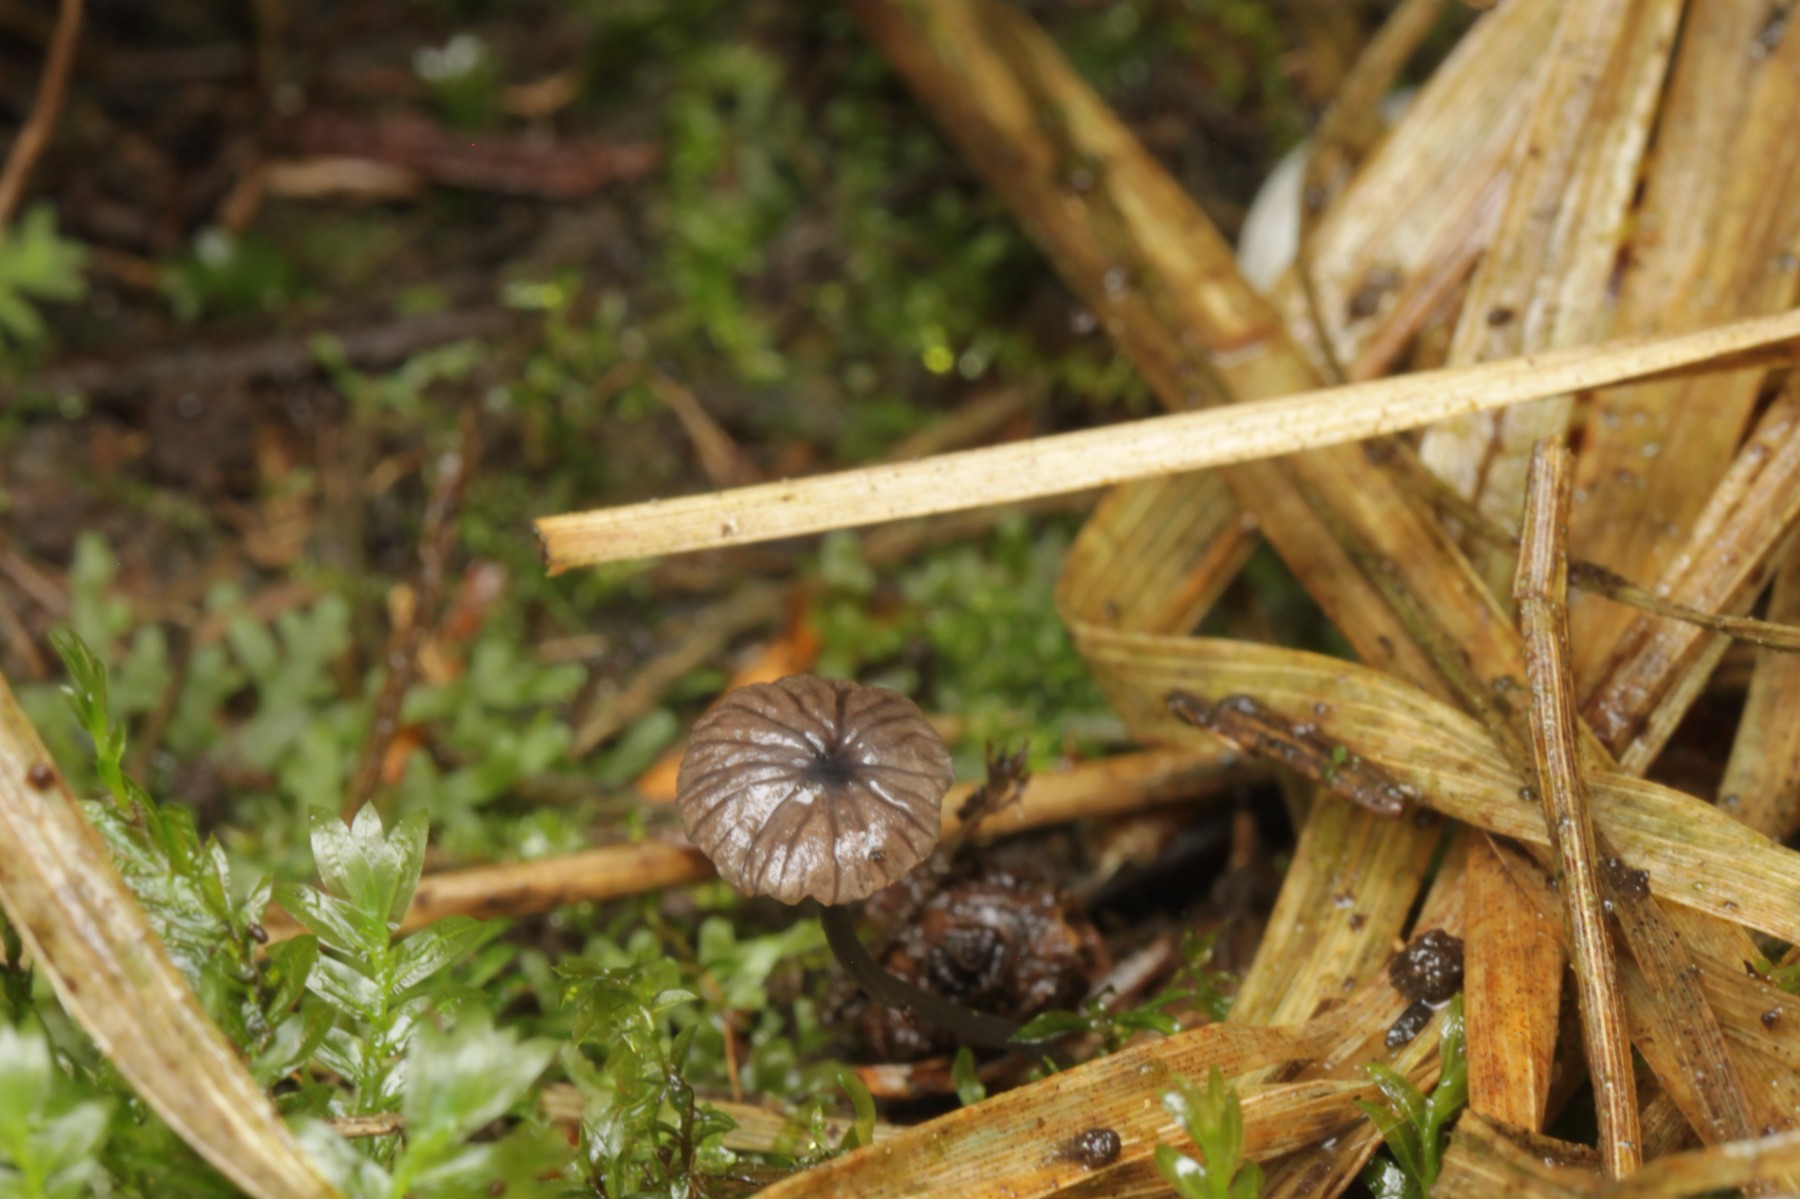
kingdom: Fungi
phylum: Basidiomycota
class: Agaricomycetes
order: Agaricales
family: Entolomataceae
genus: Entoloma
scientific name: Entoloma
